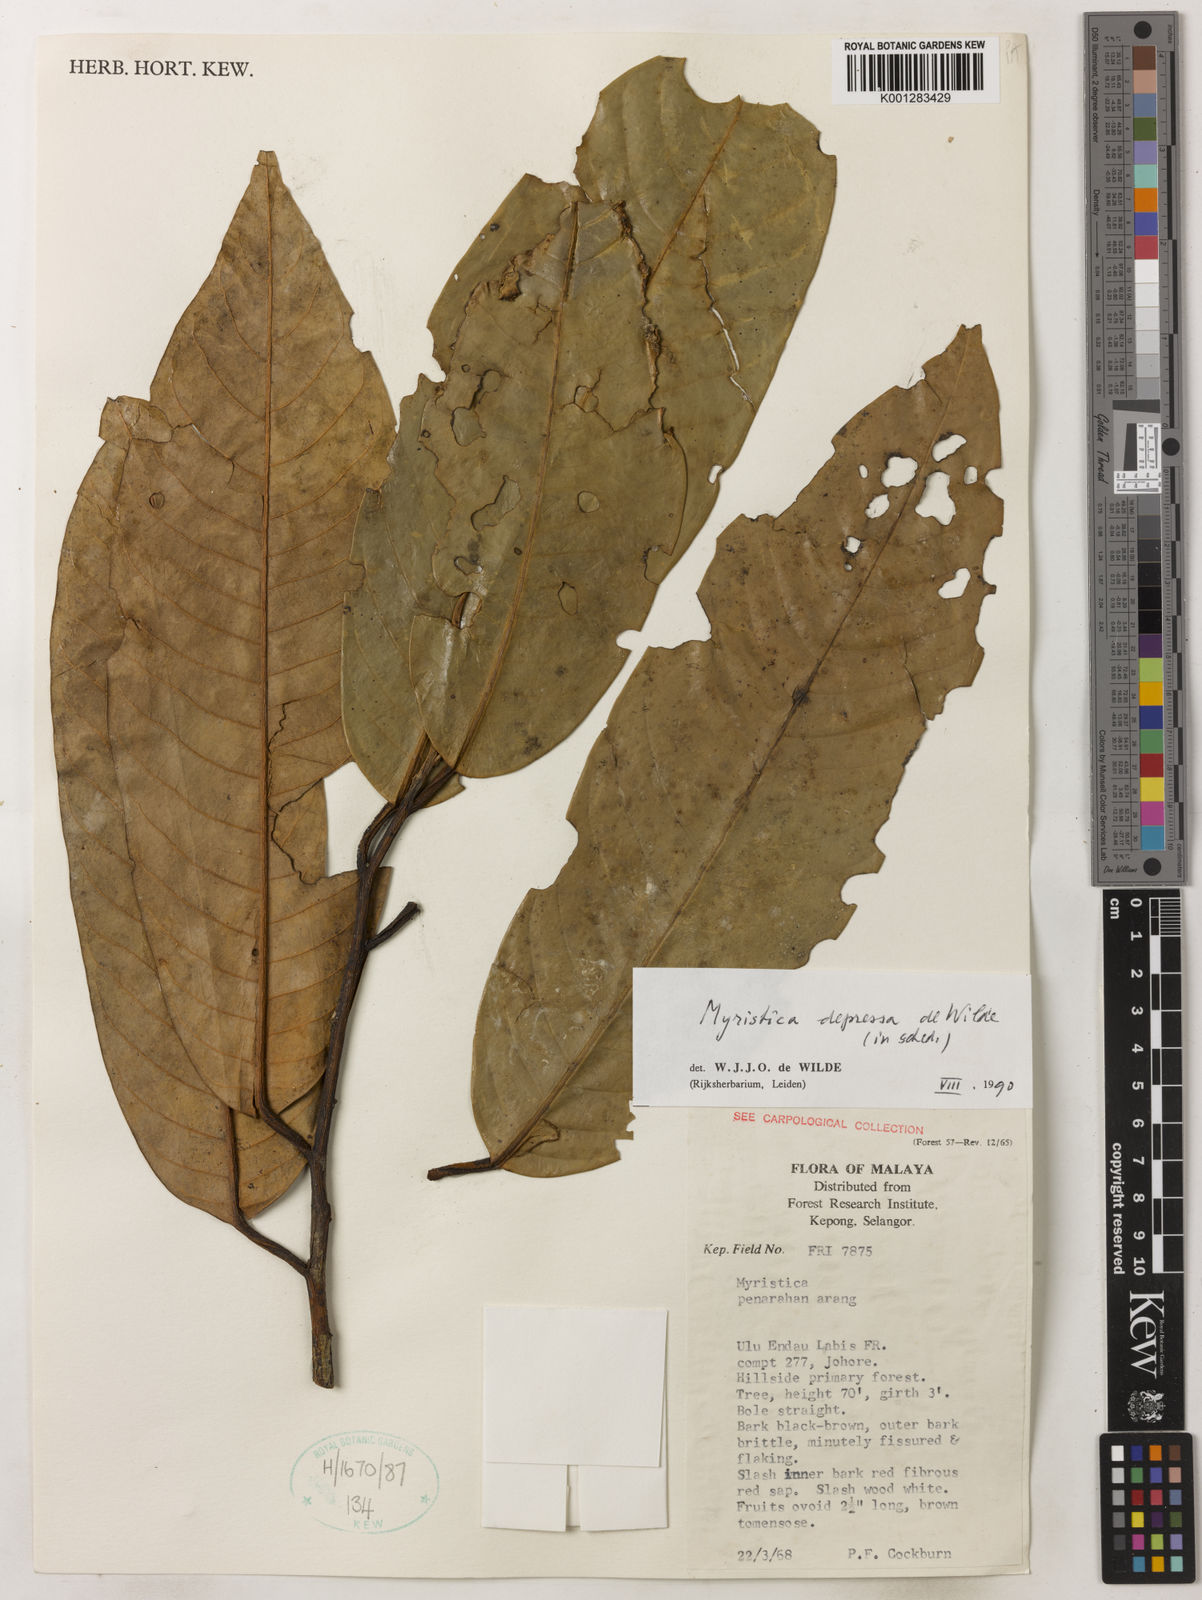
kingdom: Plantae
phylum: Tracheophyta
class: Magnoliopsida
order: Magnoliales
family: Myristicaceae
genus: Myristica
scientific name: Myristica crassa
